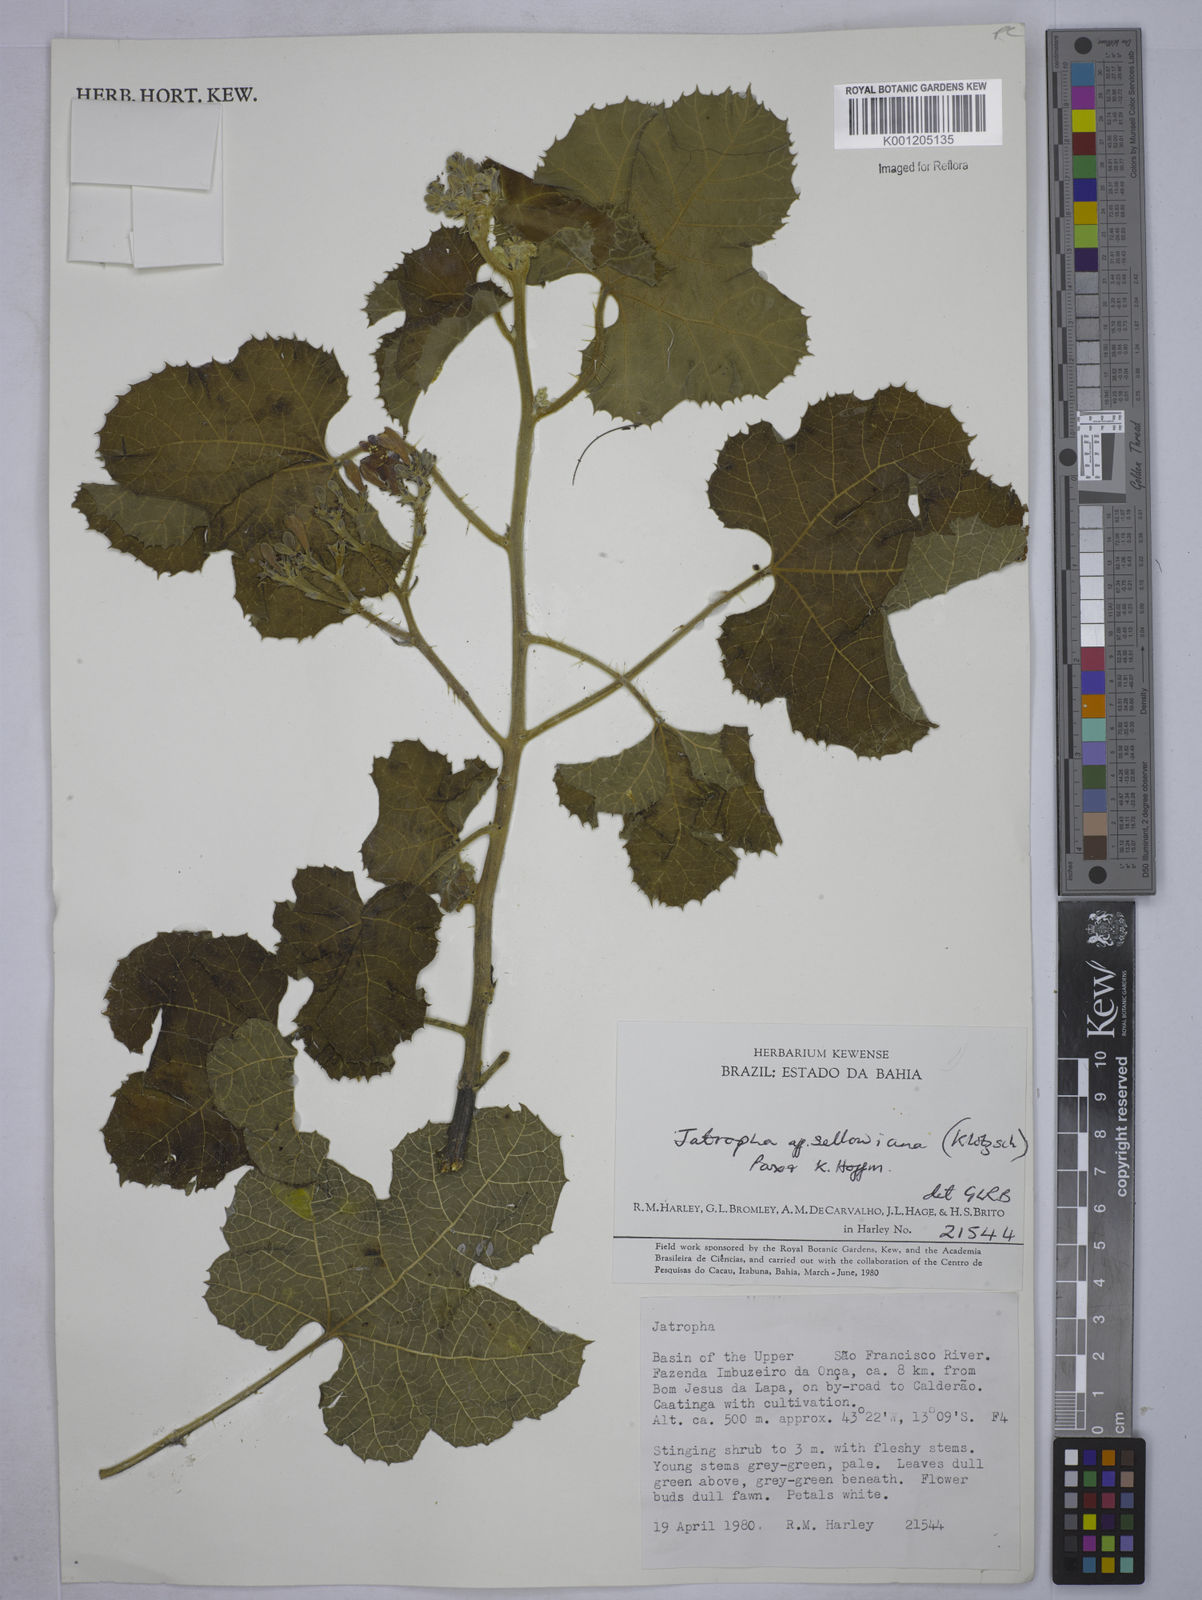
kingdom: Plantae
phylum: Tracheophyta
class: Magnoliopsida
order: Malpighiales
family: Euphorbiaceae
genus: Cnidoscolus
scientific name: Cnidoscolus sellowianus
